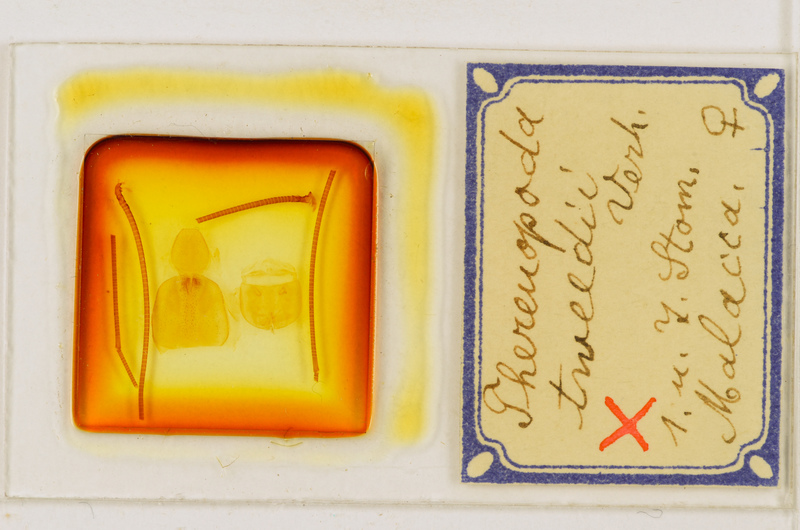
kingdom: Animalia
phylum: Arthropoda
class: Chilopoda
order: Scutigeromorpha
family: Scutigeridae
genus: Thereuopoda
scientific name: Thereuopoda longicornis
